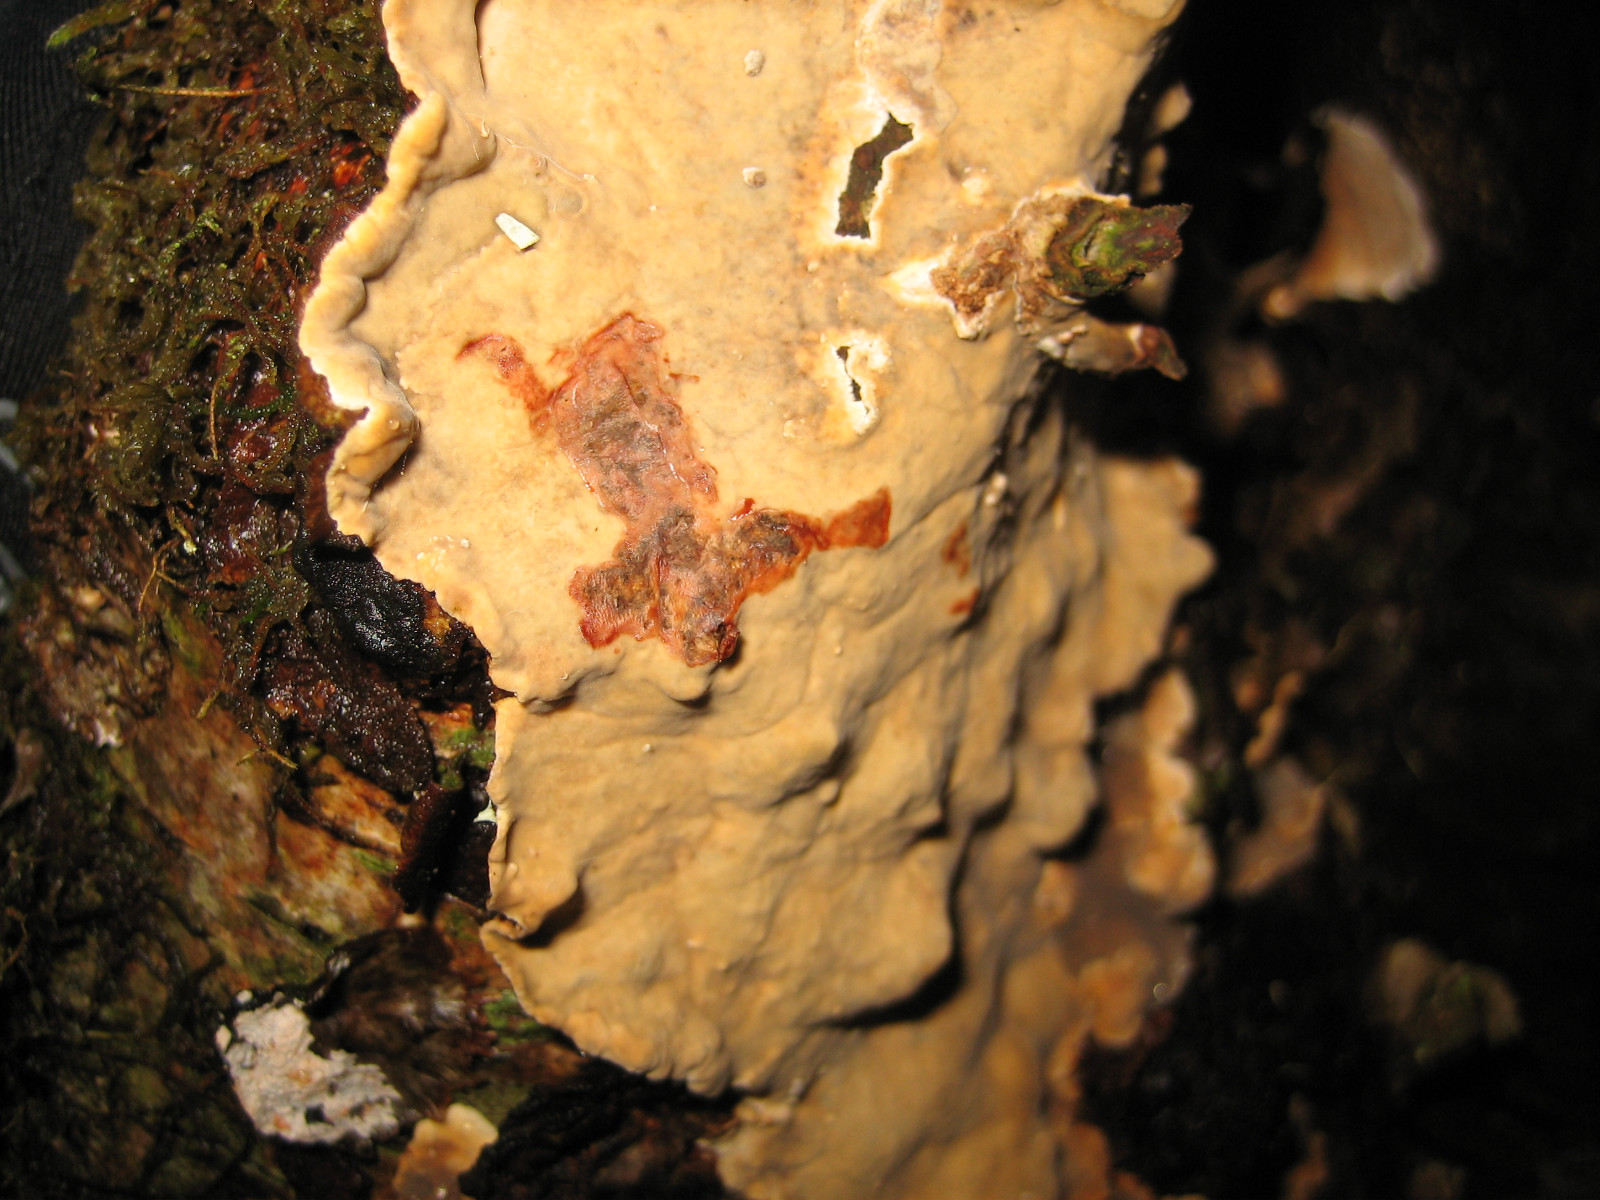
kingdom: Fungi
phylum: Basidiomycota
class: Agaricomycetes
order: Russulales
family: Stereaceae
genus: Stereum
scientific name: Stereum rugosum
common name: rynket lædersvamp
